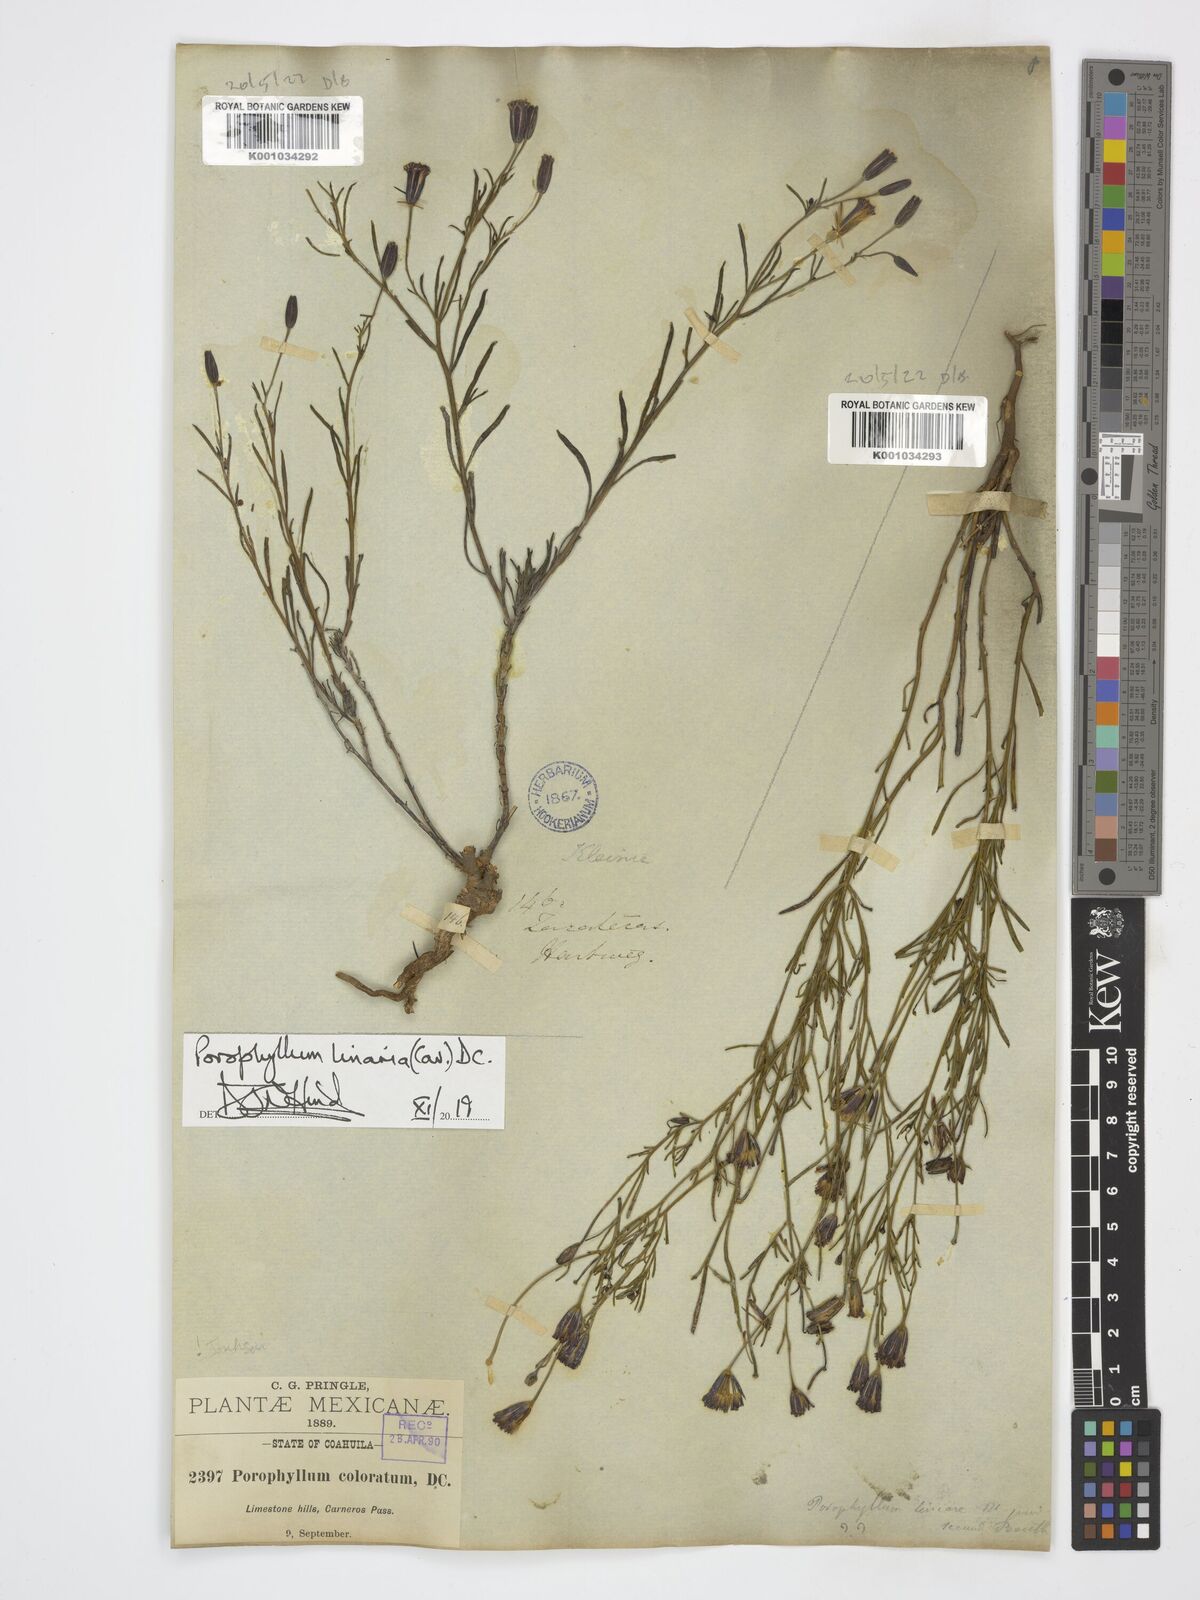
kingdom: Plantae
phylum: Tracheophyta
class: Magnoliopsida
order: Asterales
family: Asteraceae
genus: Porophyllum
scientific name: Porophyllum linaria
